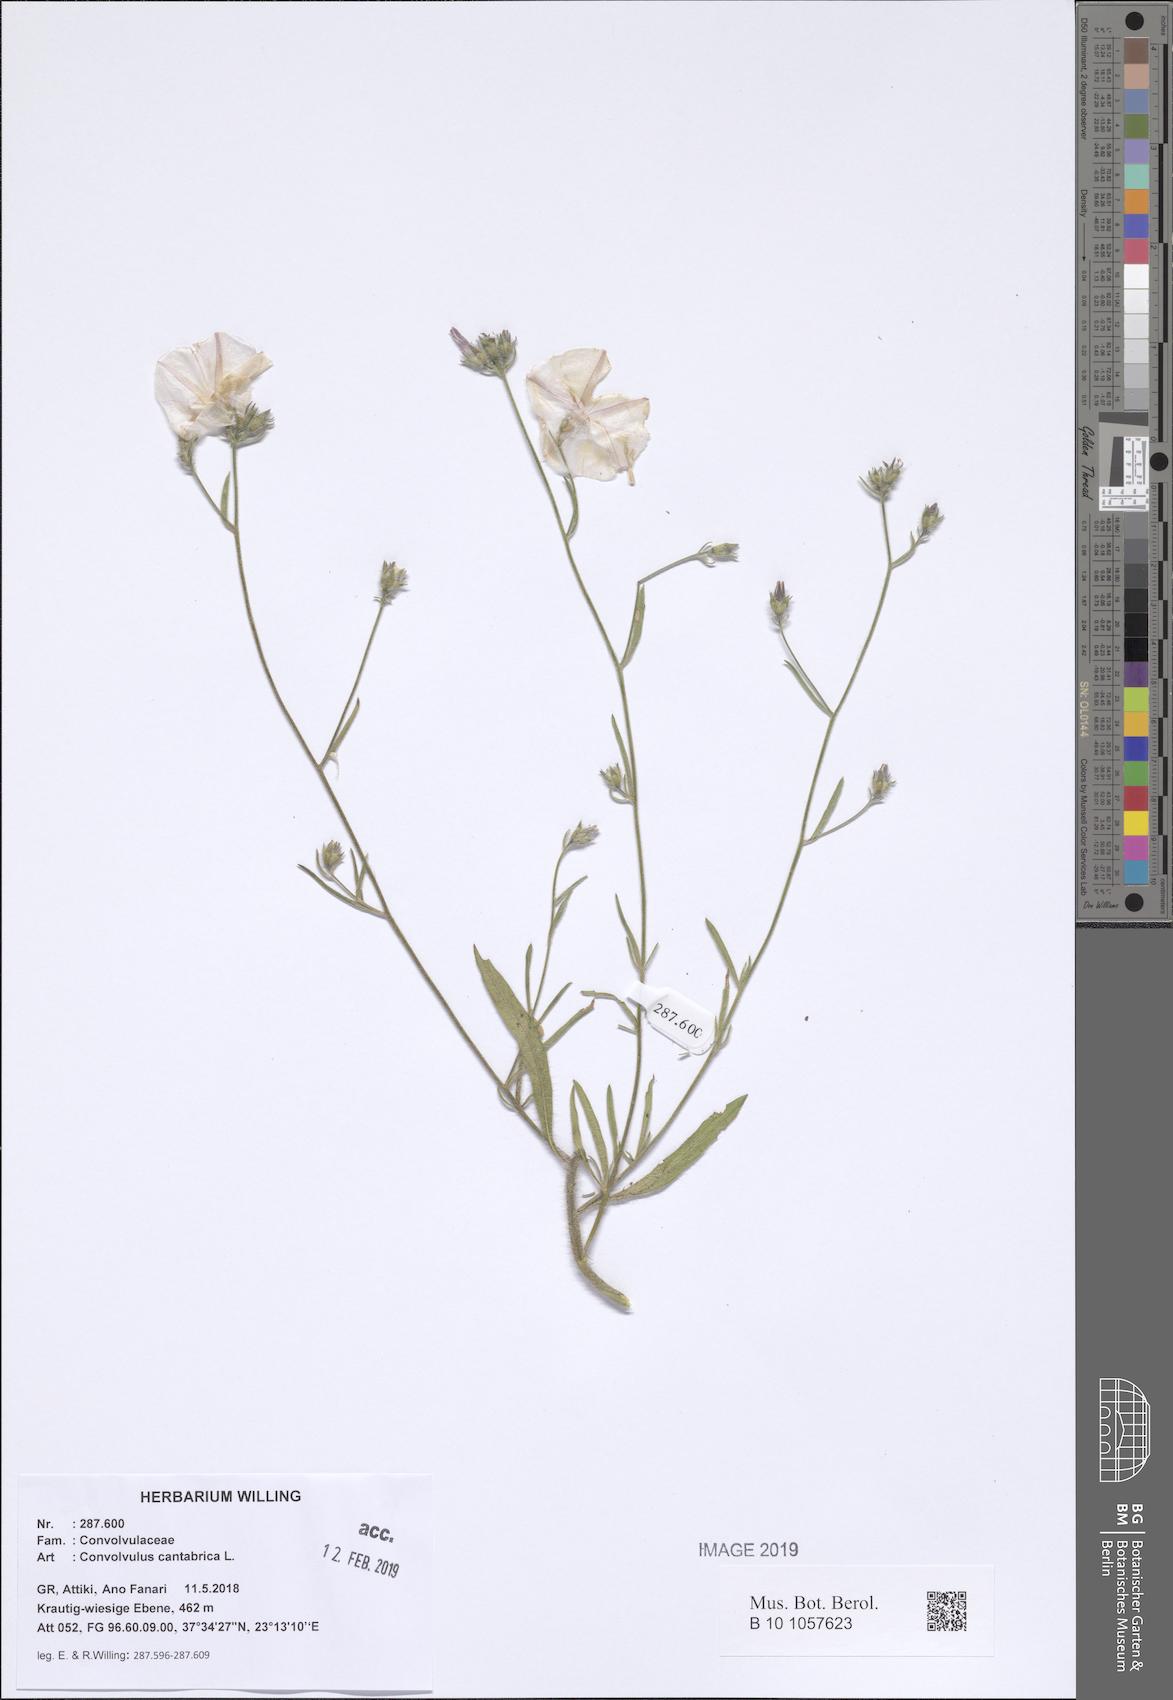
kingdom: Plantae
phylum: Tracheophyta
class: Magnoliopsida
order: Solanales
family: Convolvulaceae
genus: Convolvulus
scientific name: Convolvulus cantabrica
